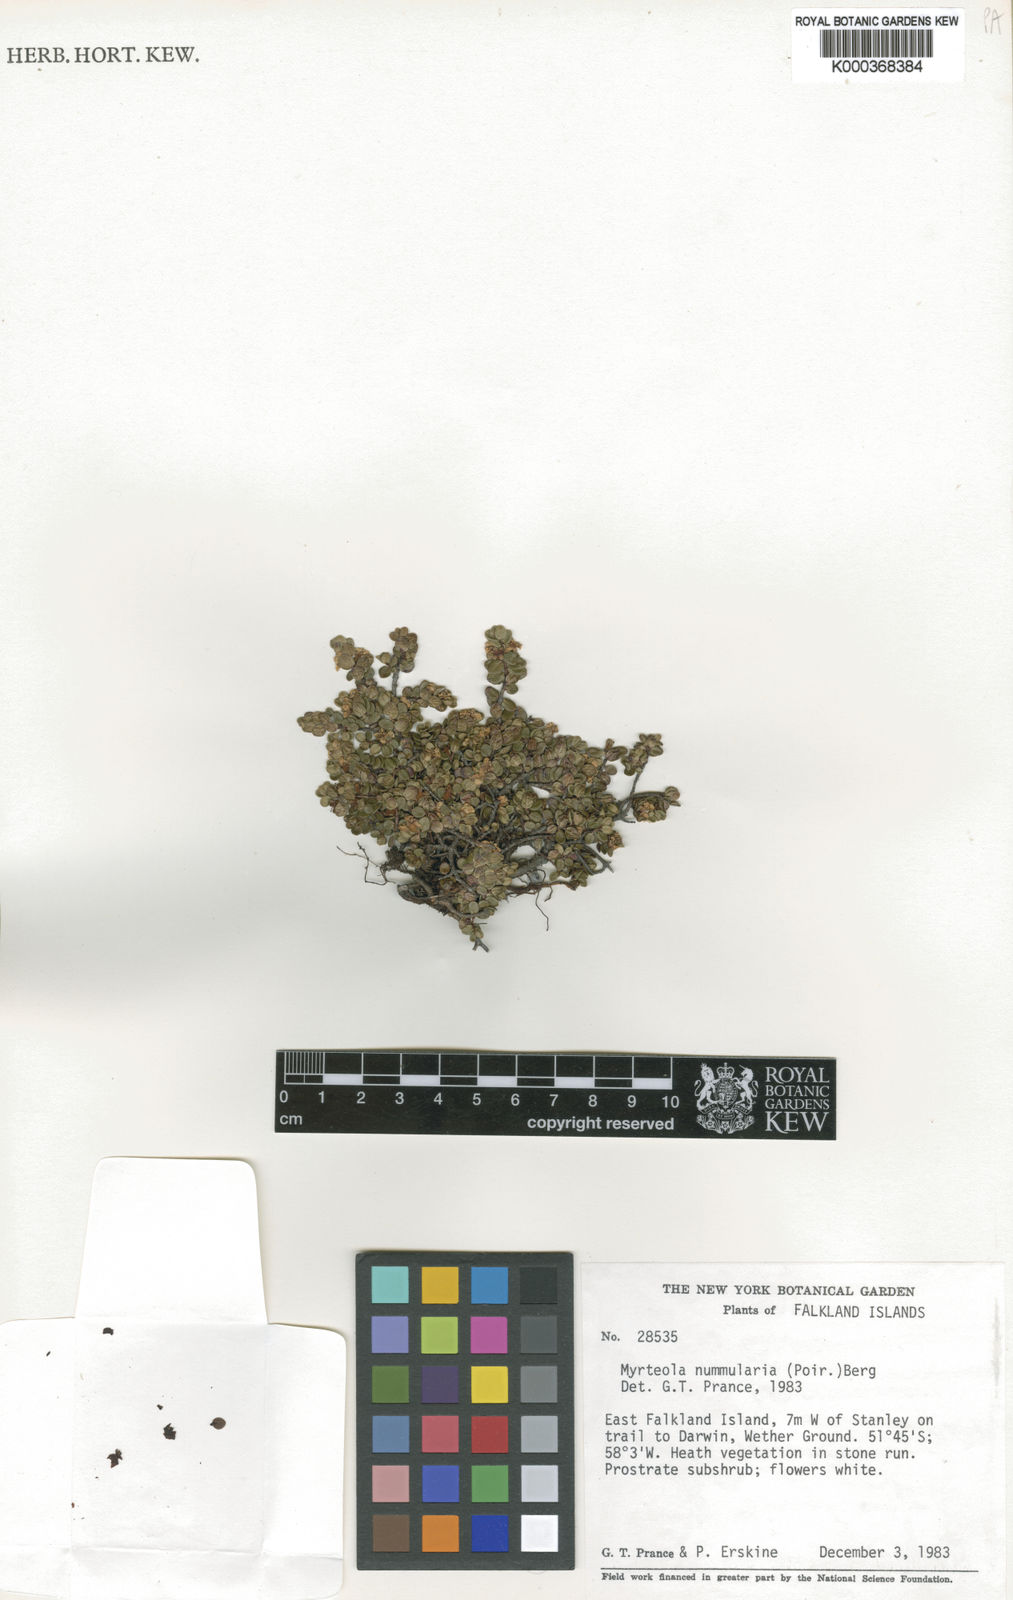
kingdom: Plantae
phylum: Tracheophyta
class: Magnoliopsida
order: Myrtales
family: Myrtaceae
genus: Myrteola
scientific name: Myrteola nummularia
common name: Cranberry-myrtle
